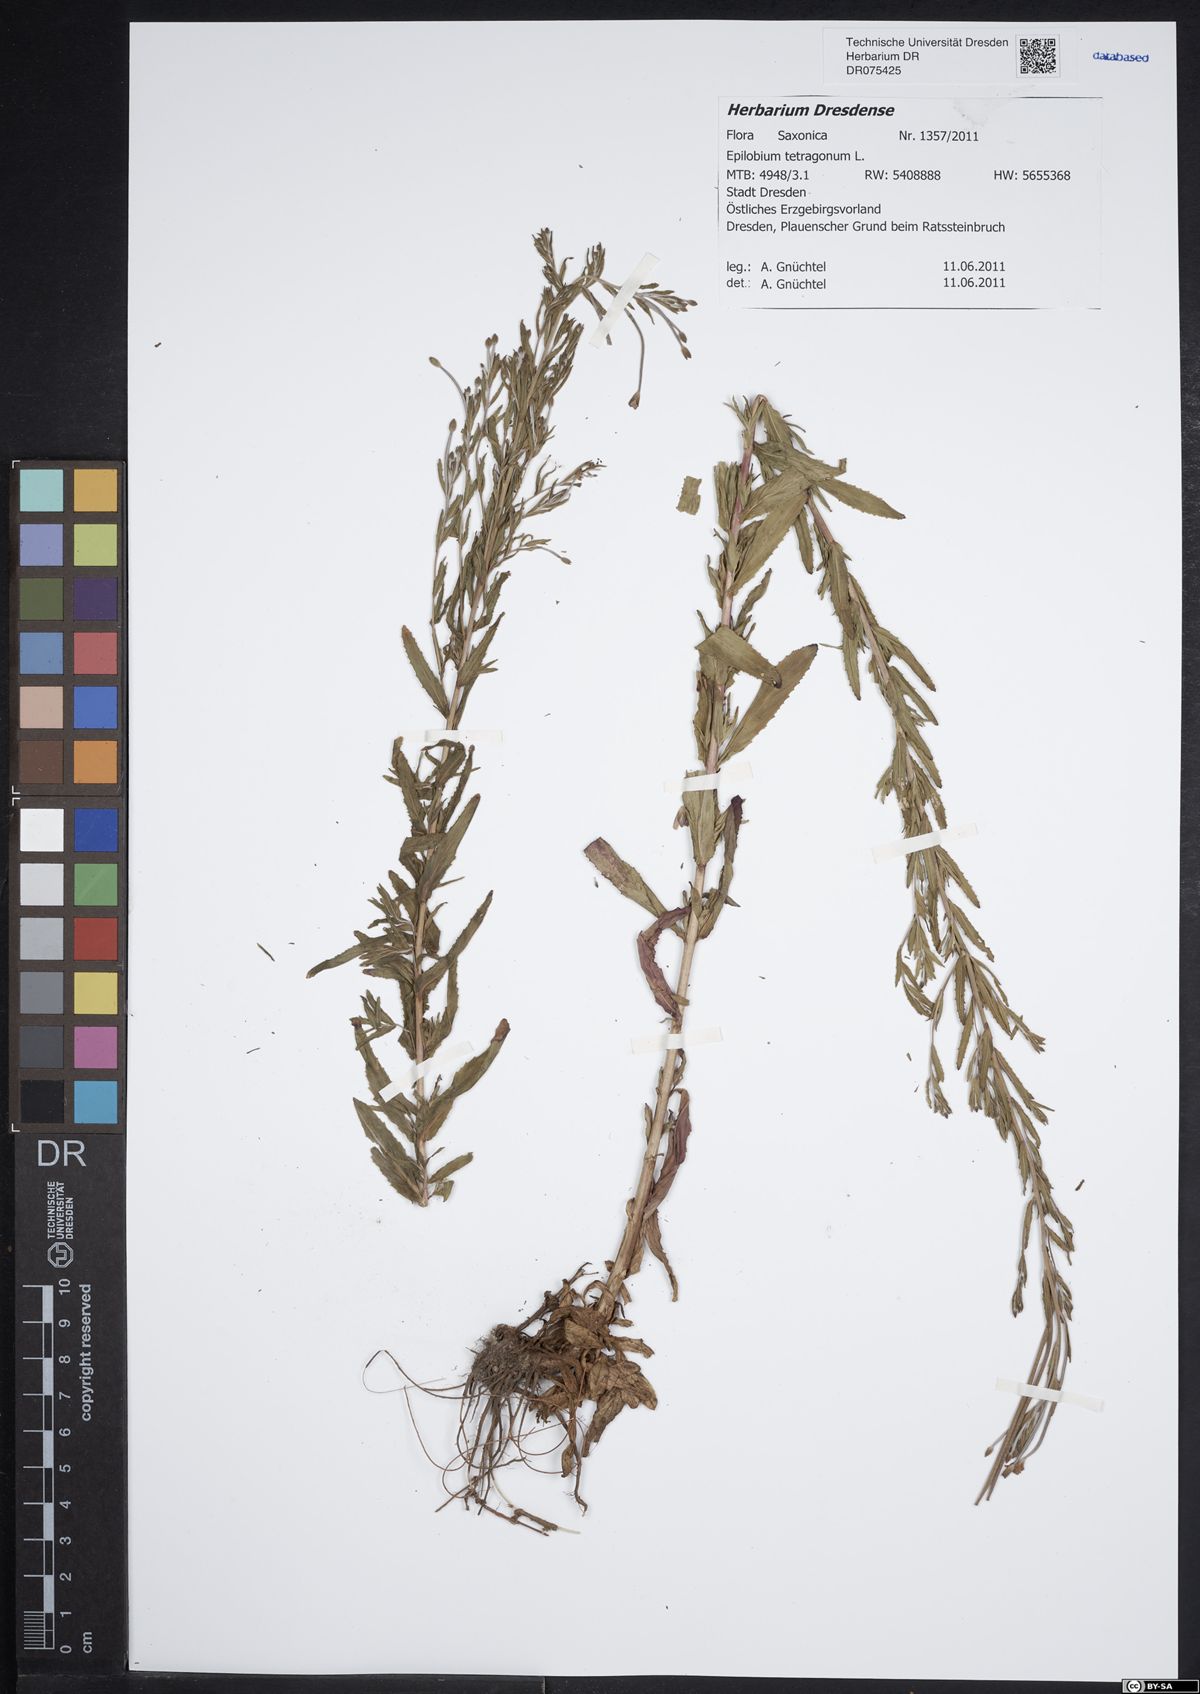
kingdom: Plantae
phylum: Tracheophyta
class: Magnoliopsida
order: Myrtales
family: Onagraceae
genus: Epilobium
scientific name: Epilobium tetragonum
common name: Square-stemmed willowherb
